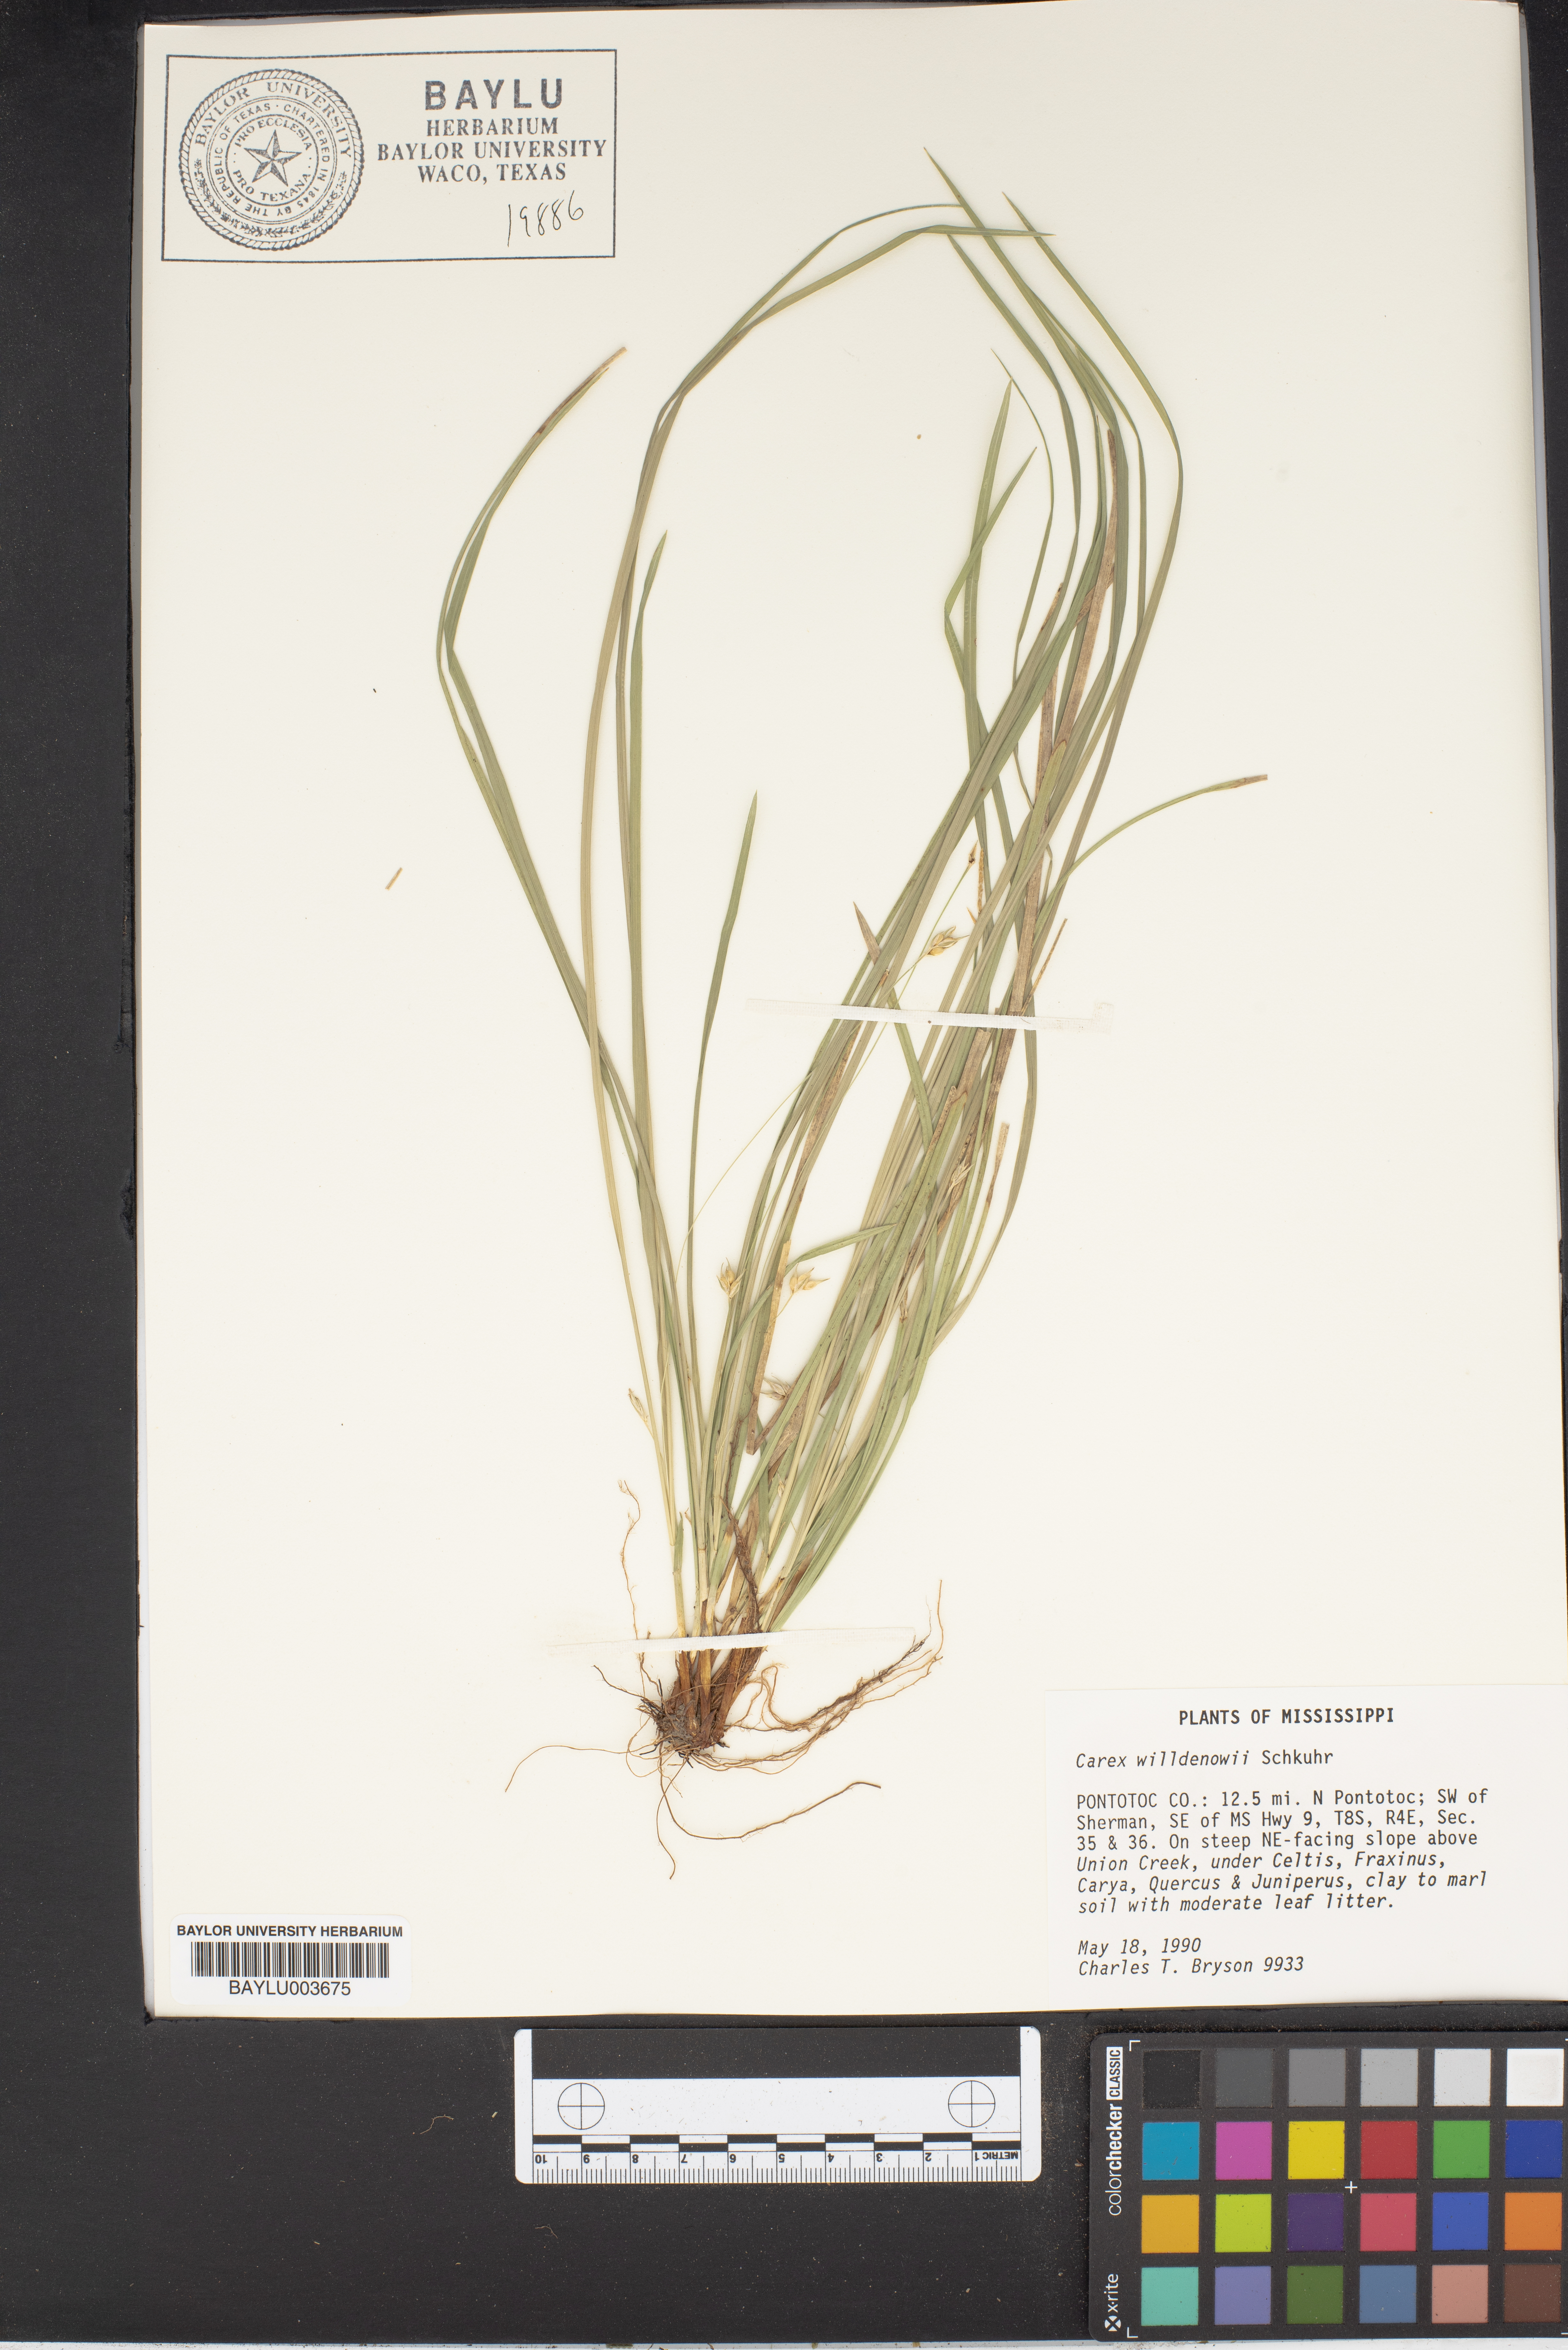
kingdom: Plantae
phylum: Tracheophyta
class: Liliopsida
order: Poales
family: Cyperaceae
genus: Carex
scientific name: Carex willdenowii
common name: Willdenow's sedge
